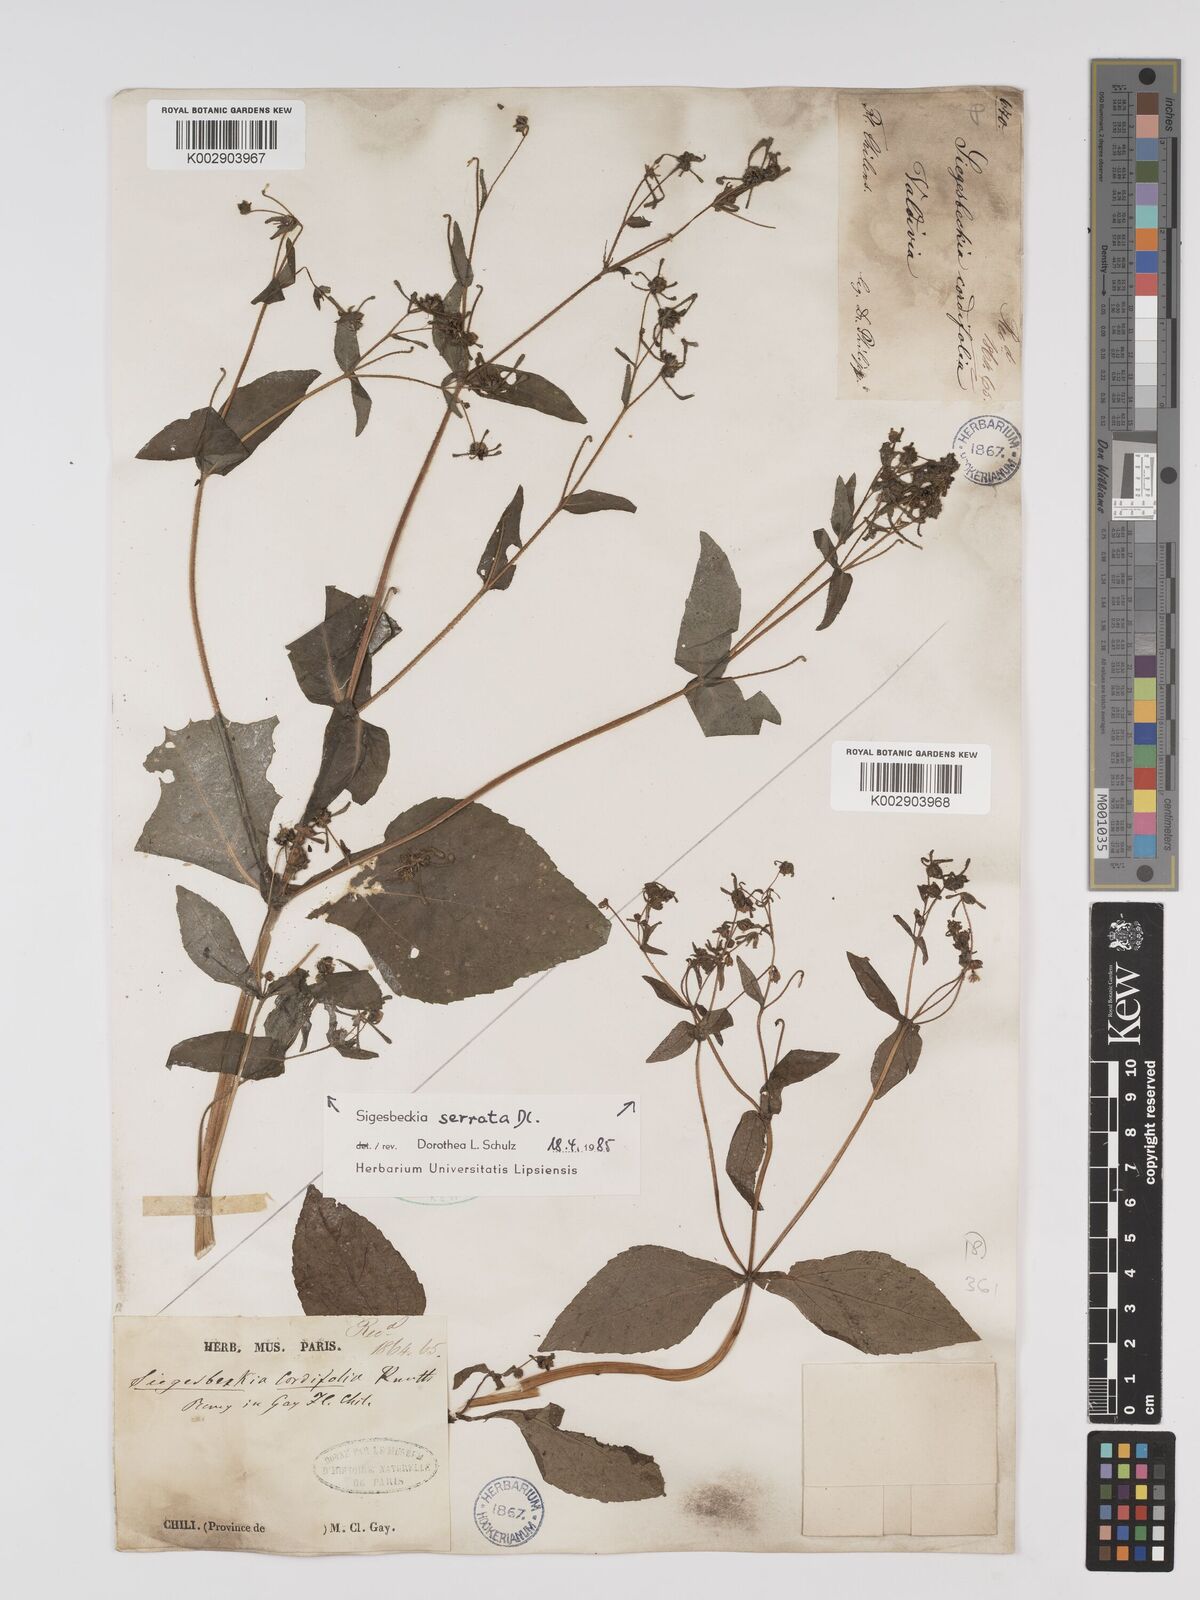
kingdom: Plantae
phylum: Tracheophyta
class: Magnoliopsida
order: Asterales
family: Asteraceae
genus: Sigesbeckia
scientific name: Sigesbeckia jorullensis
